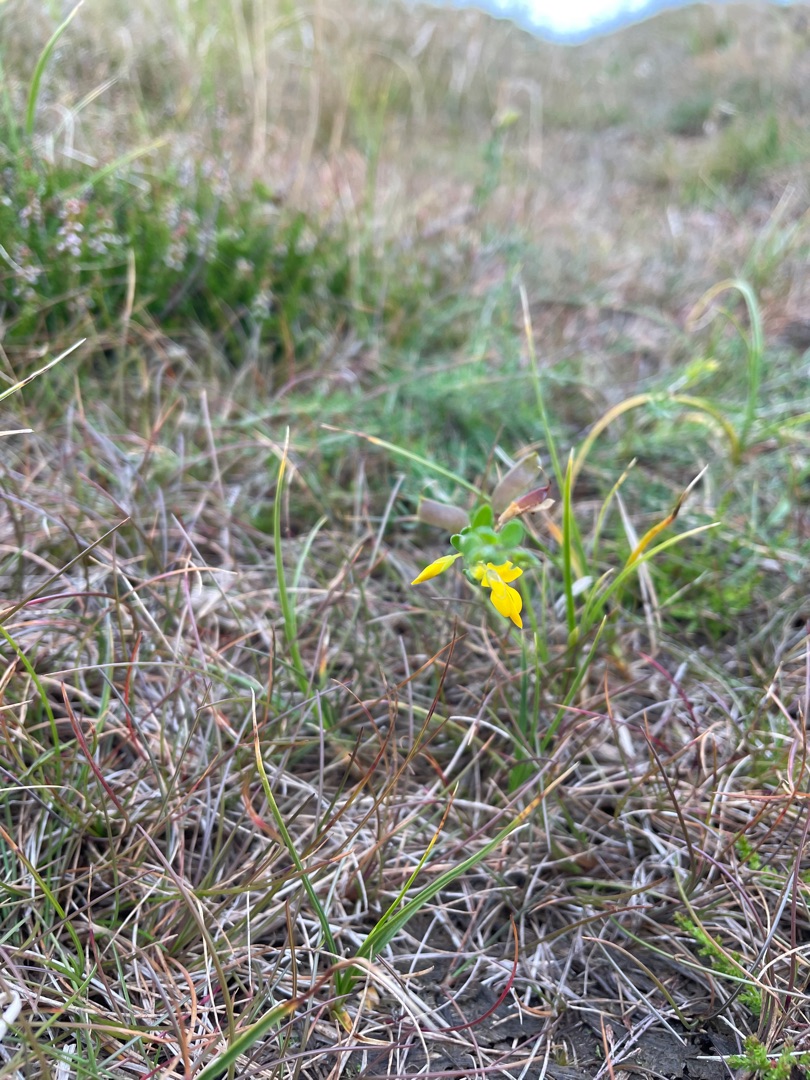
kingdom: Plantae
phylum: Tracheophyta
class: Magnoliopsida
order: Fabales
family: Fabaceae
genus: Genista
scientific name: Genista anglica
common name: Engelsk visse
